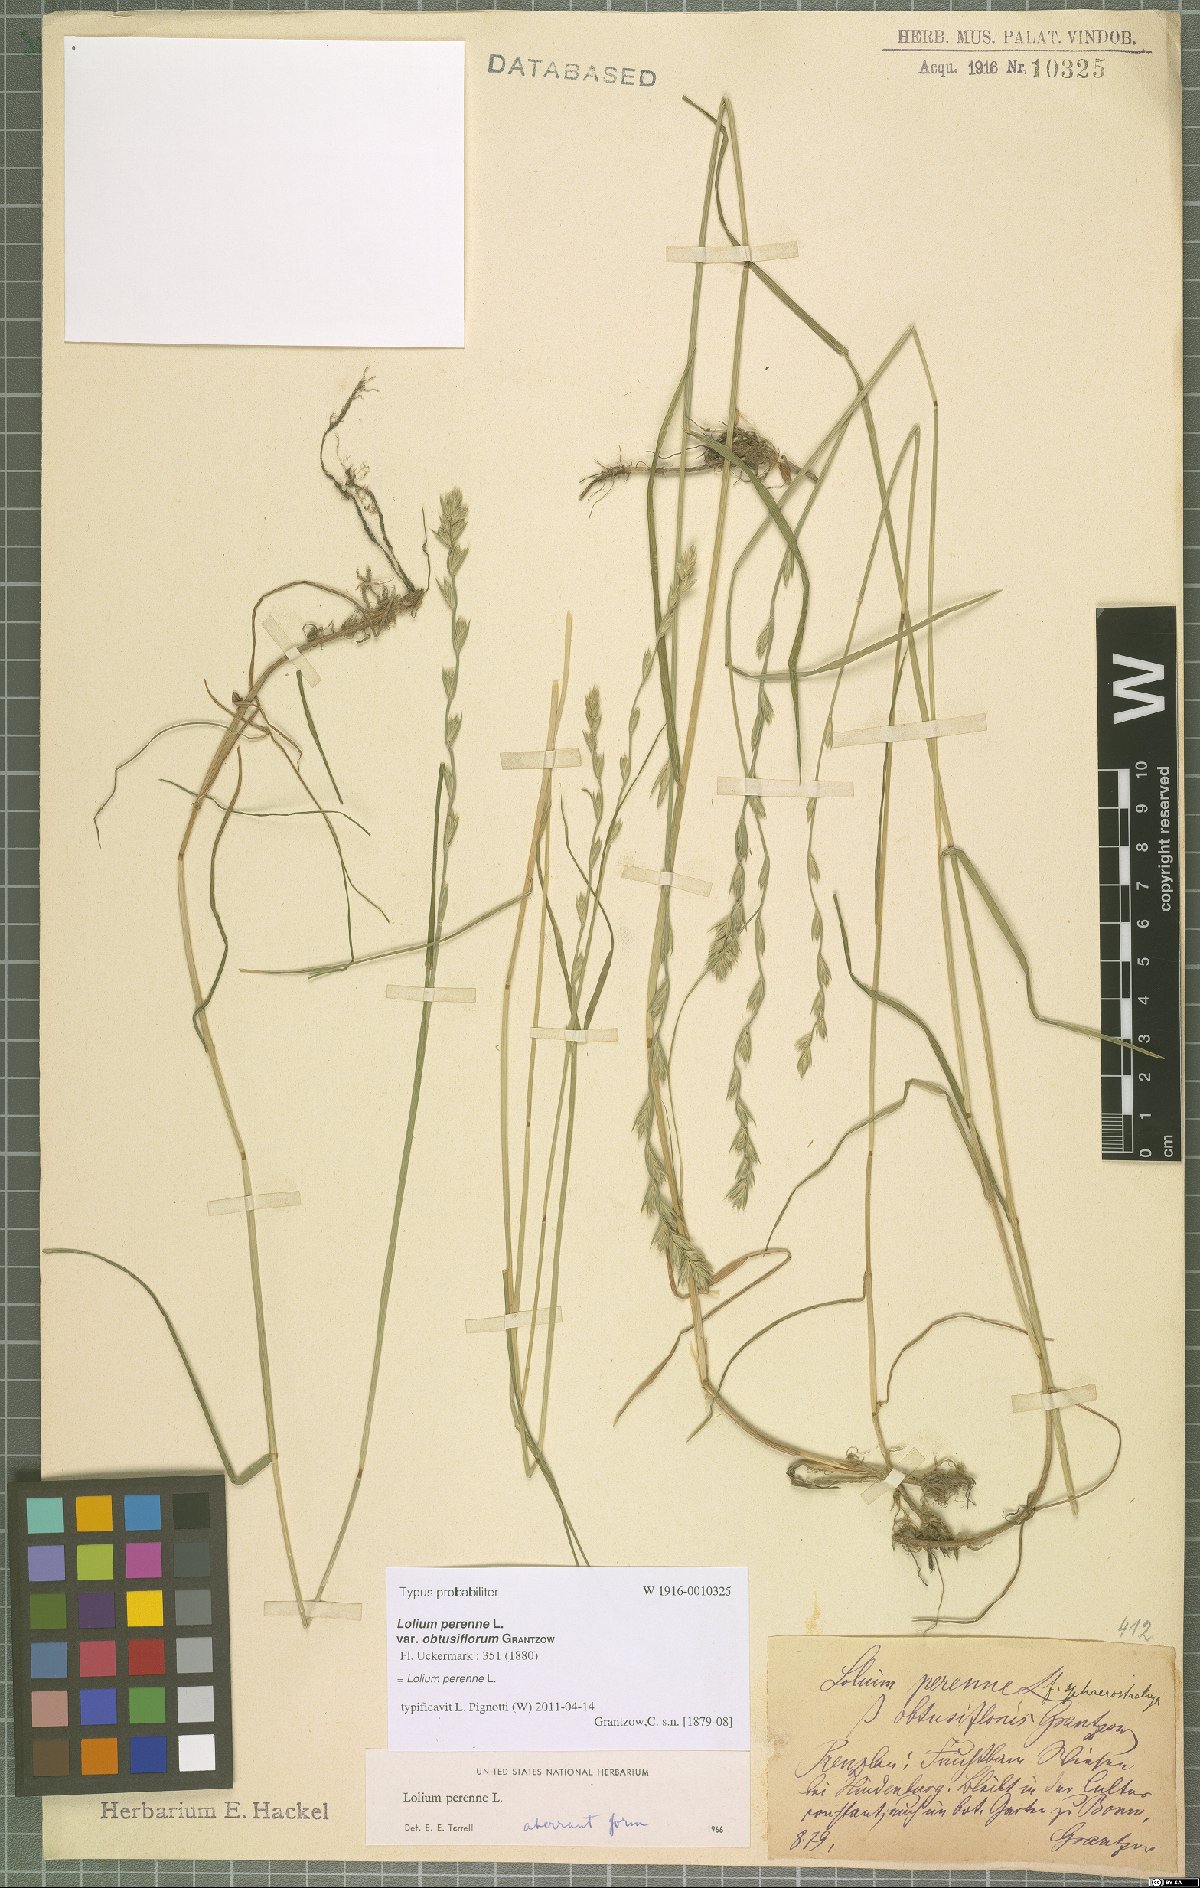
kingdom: Plantae
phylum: Tracheophyta
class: Liliopsida
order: Poales
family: Poaceae
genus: Lolium
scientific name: Lolium perenne
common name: Perennial ryegrass
